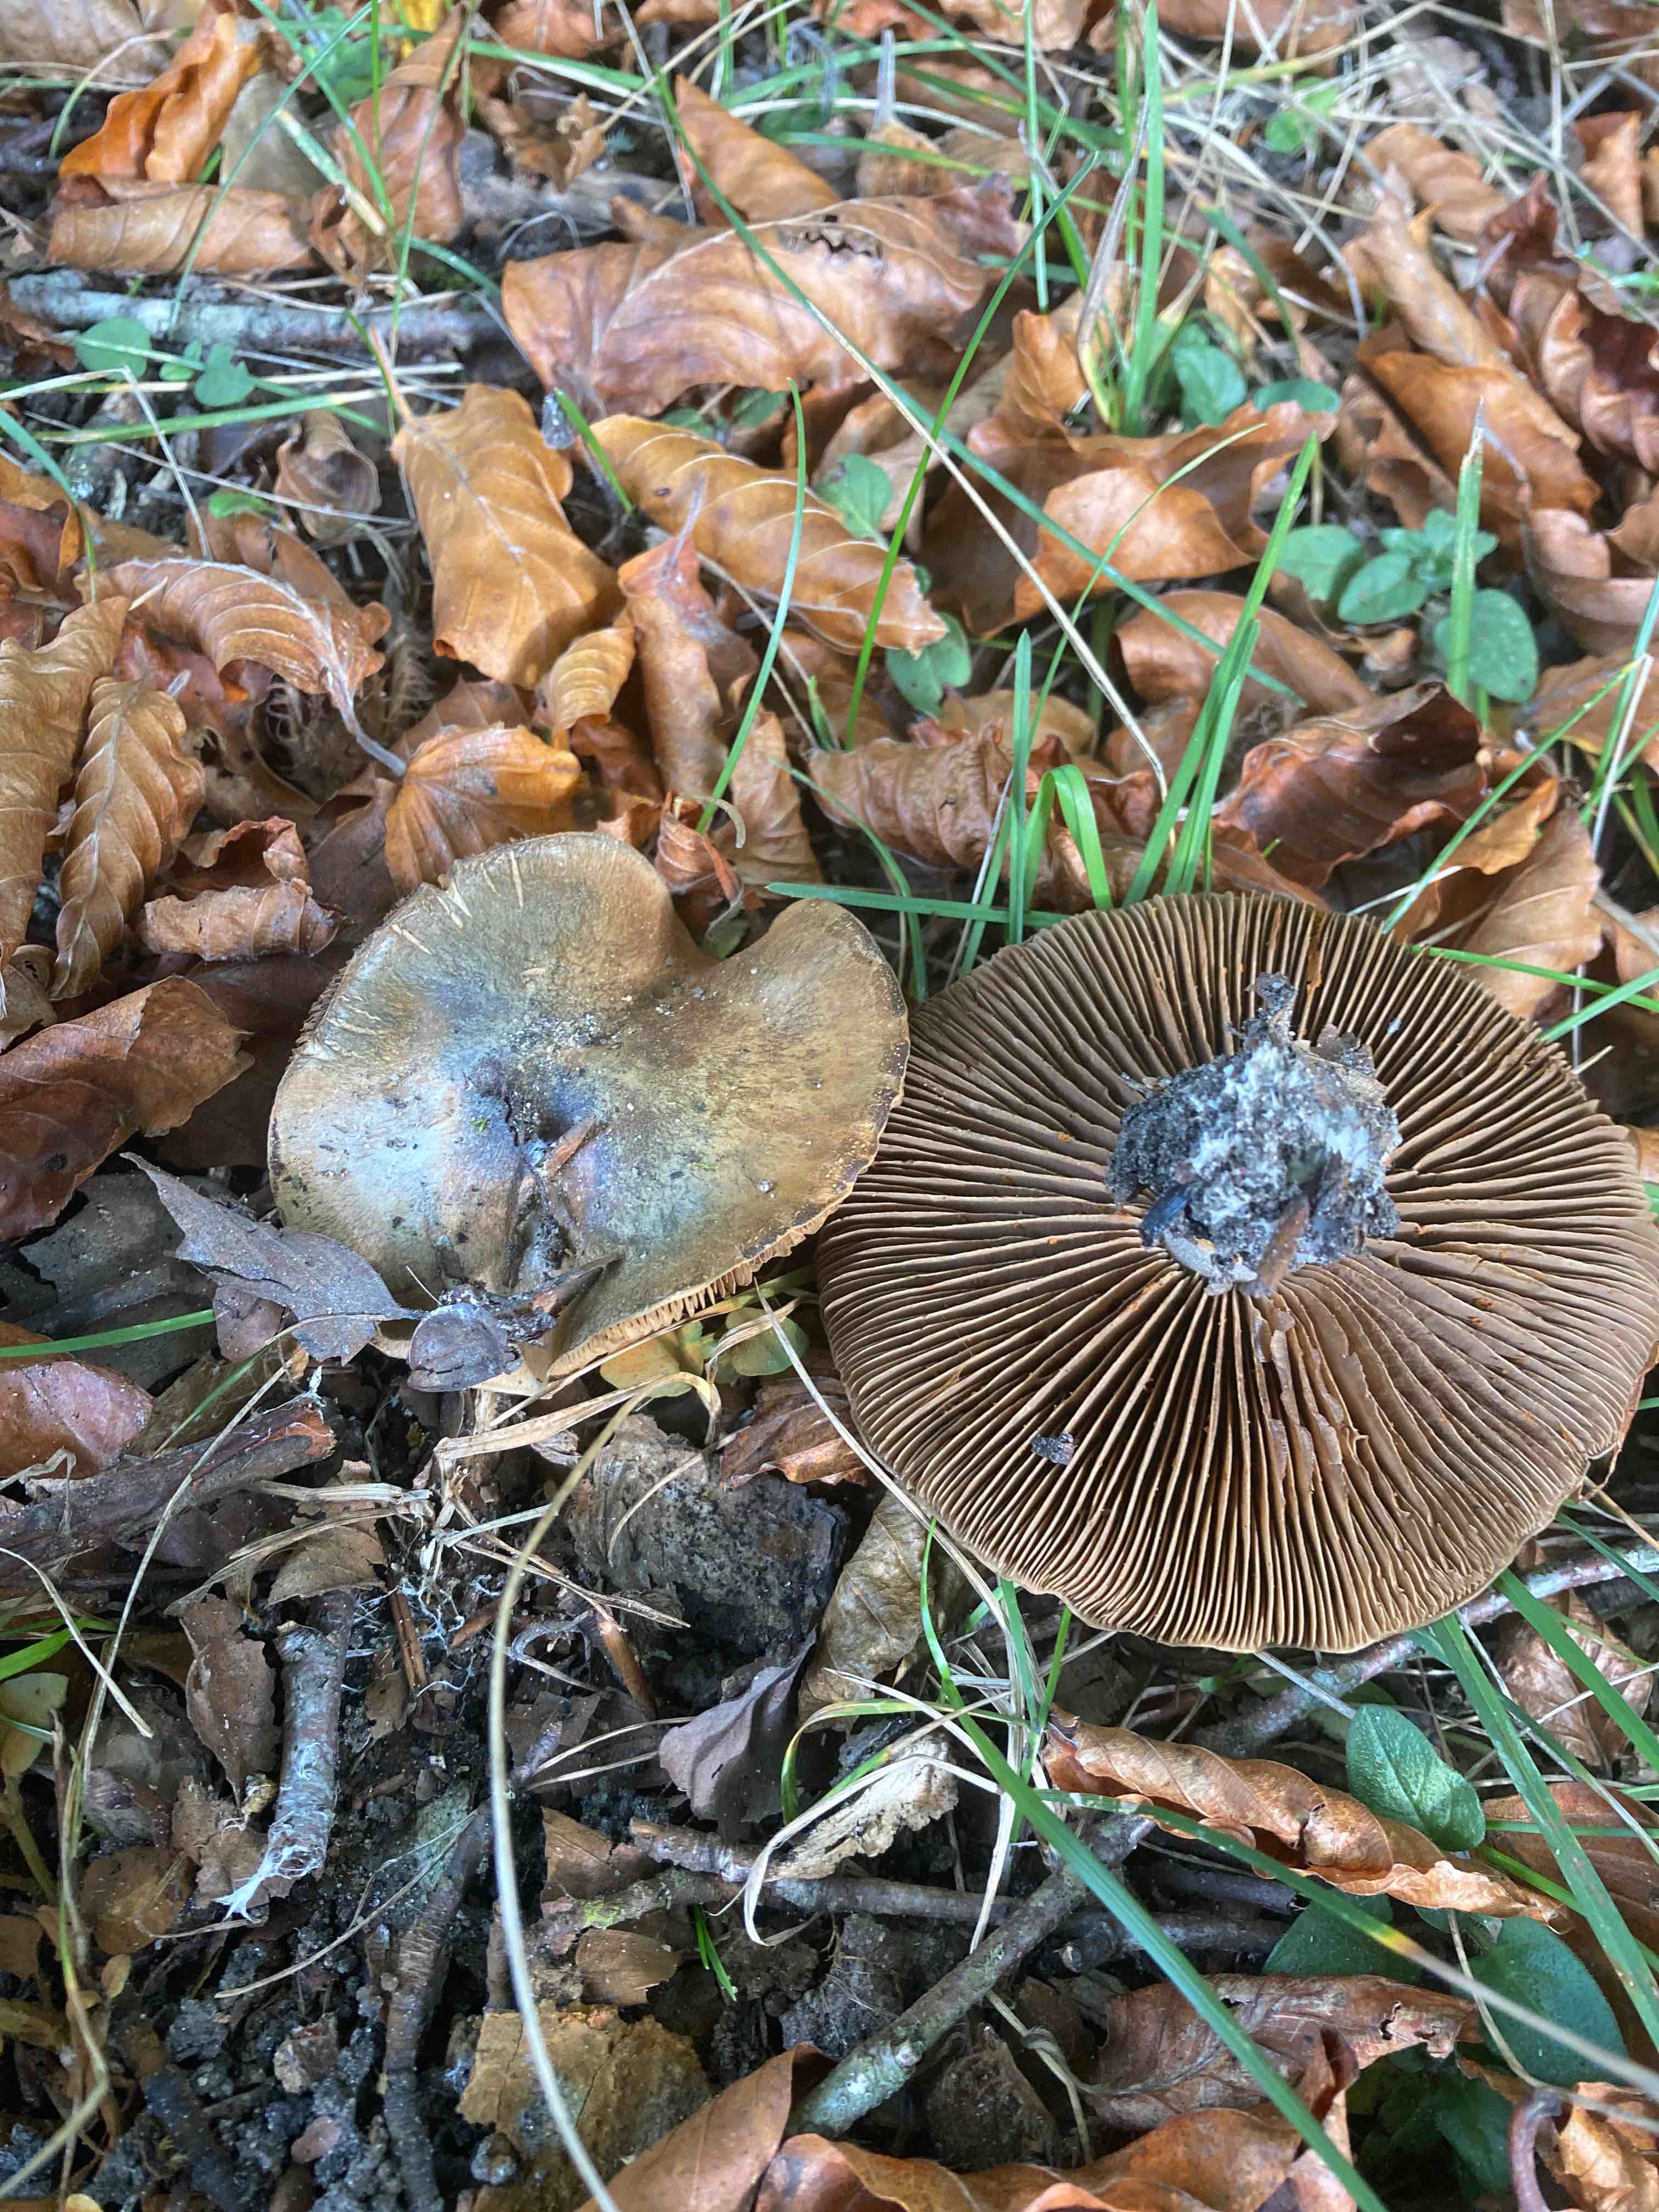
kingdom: Fungi
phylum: Basidiomycota
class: Agaricomycetes
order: Agaricales
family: Cortinariaceae
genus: Cortinarius
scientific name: Cortinarius
